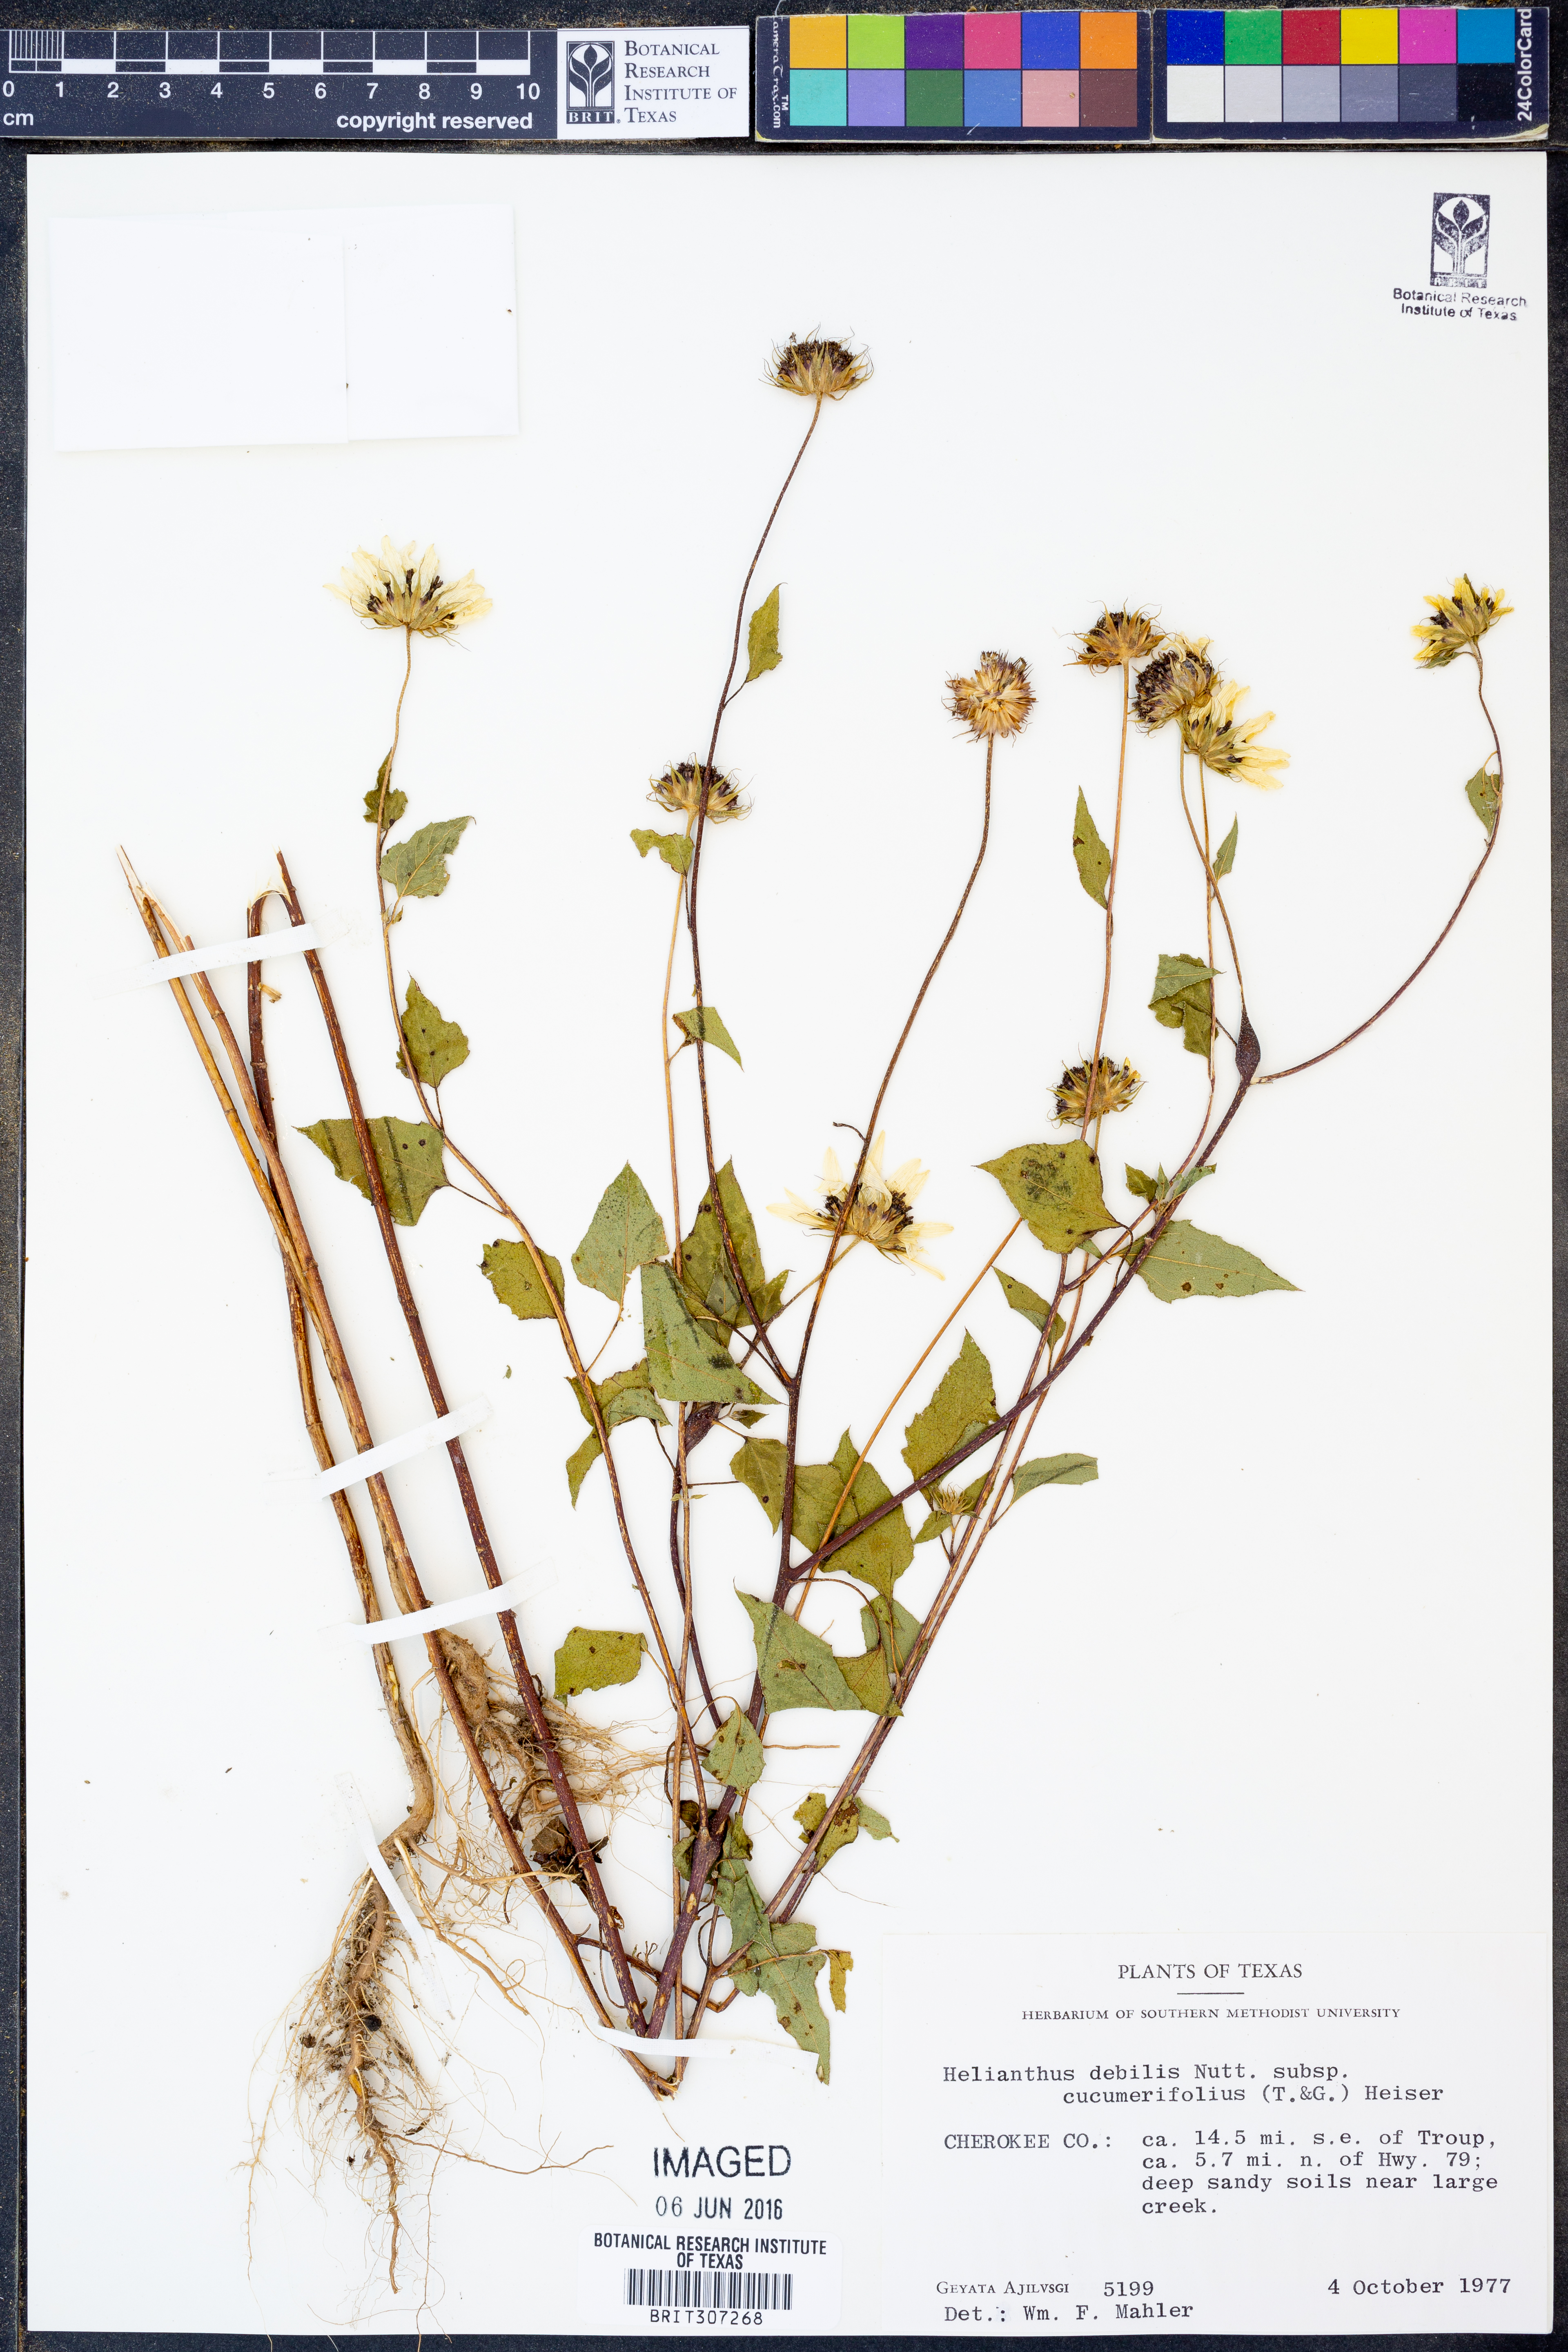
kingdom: Plantae
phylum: Tracheophyta
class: Magnoliopsida
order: Asterales
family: Asteraceae
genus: Helianthus
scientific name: Helianthus debilis
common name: Weak sunflower
